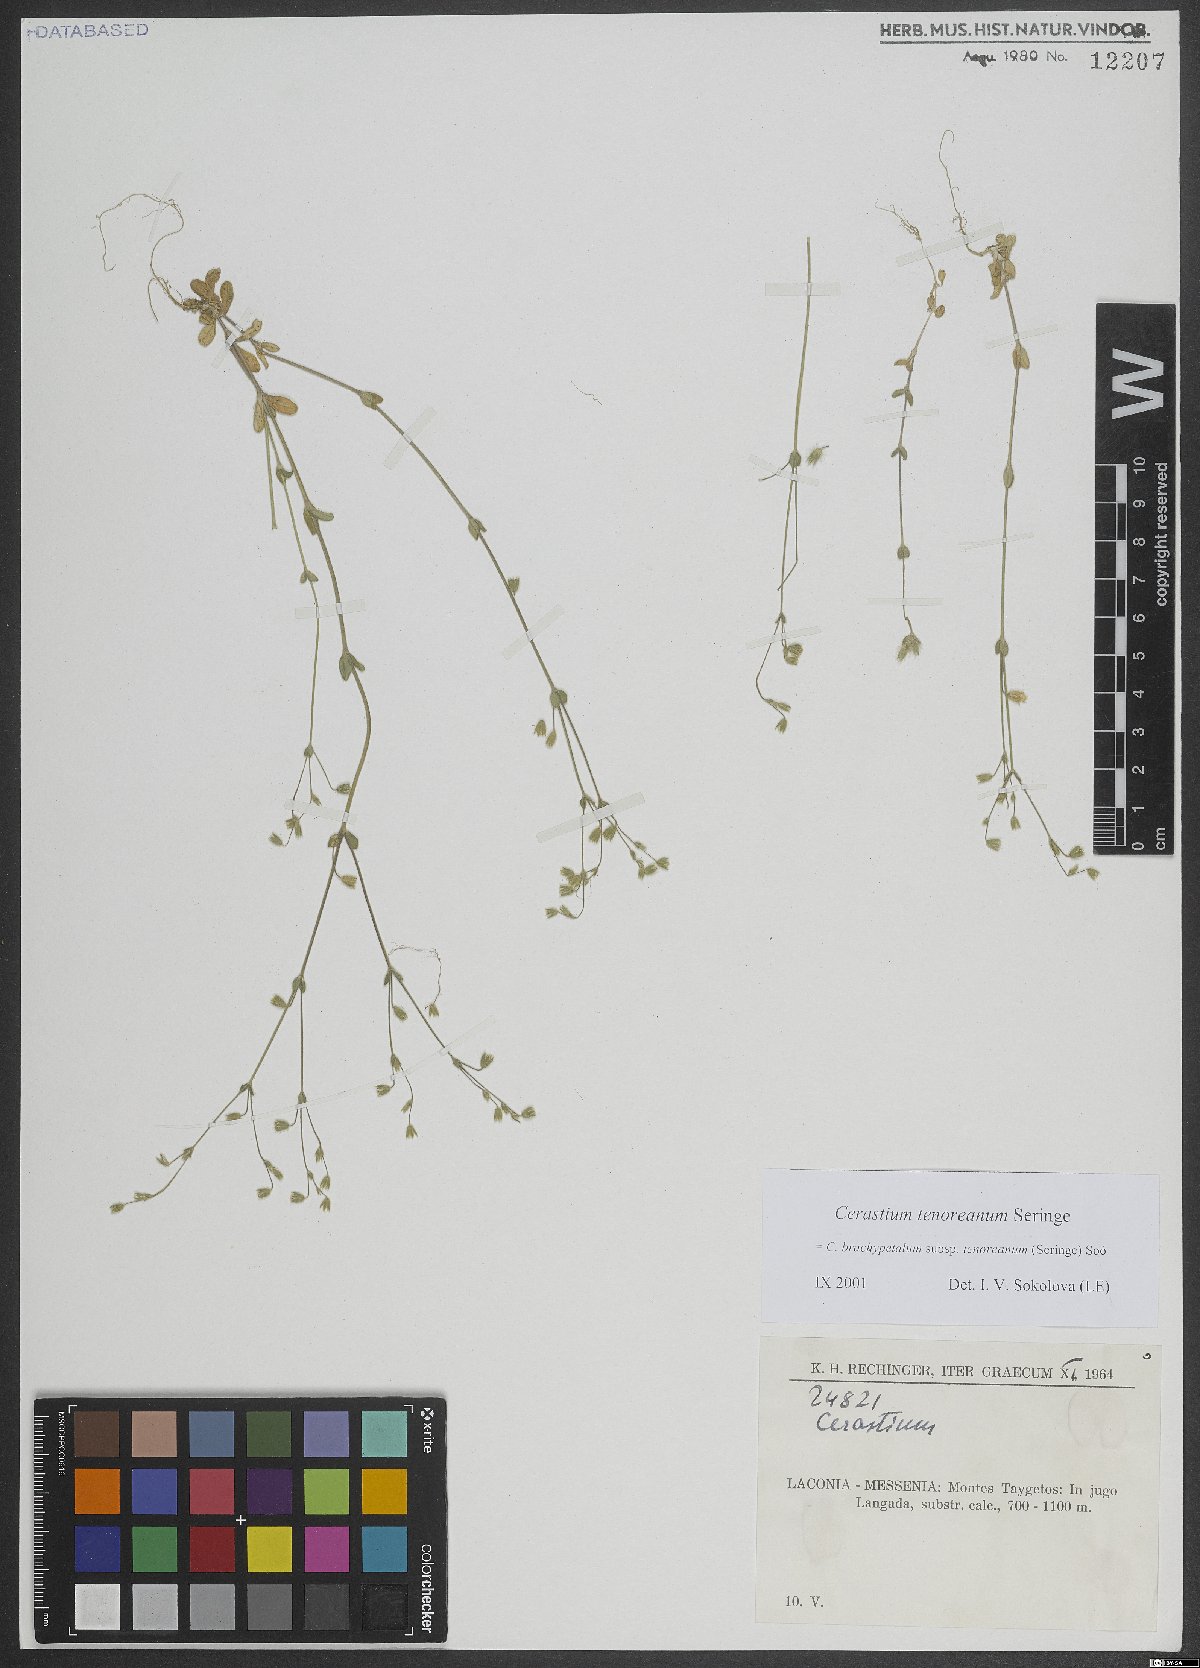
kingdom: Plantae
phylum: Tracheophyta
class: Magnoliopsida
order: Caryophyllales
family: Caryophyllaceae
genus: Cerastium
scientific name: Cerastium tenoreanum
